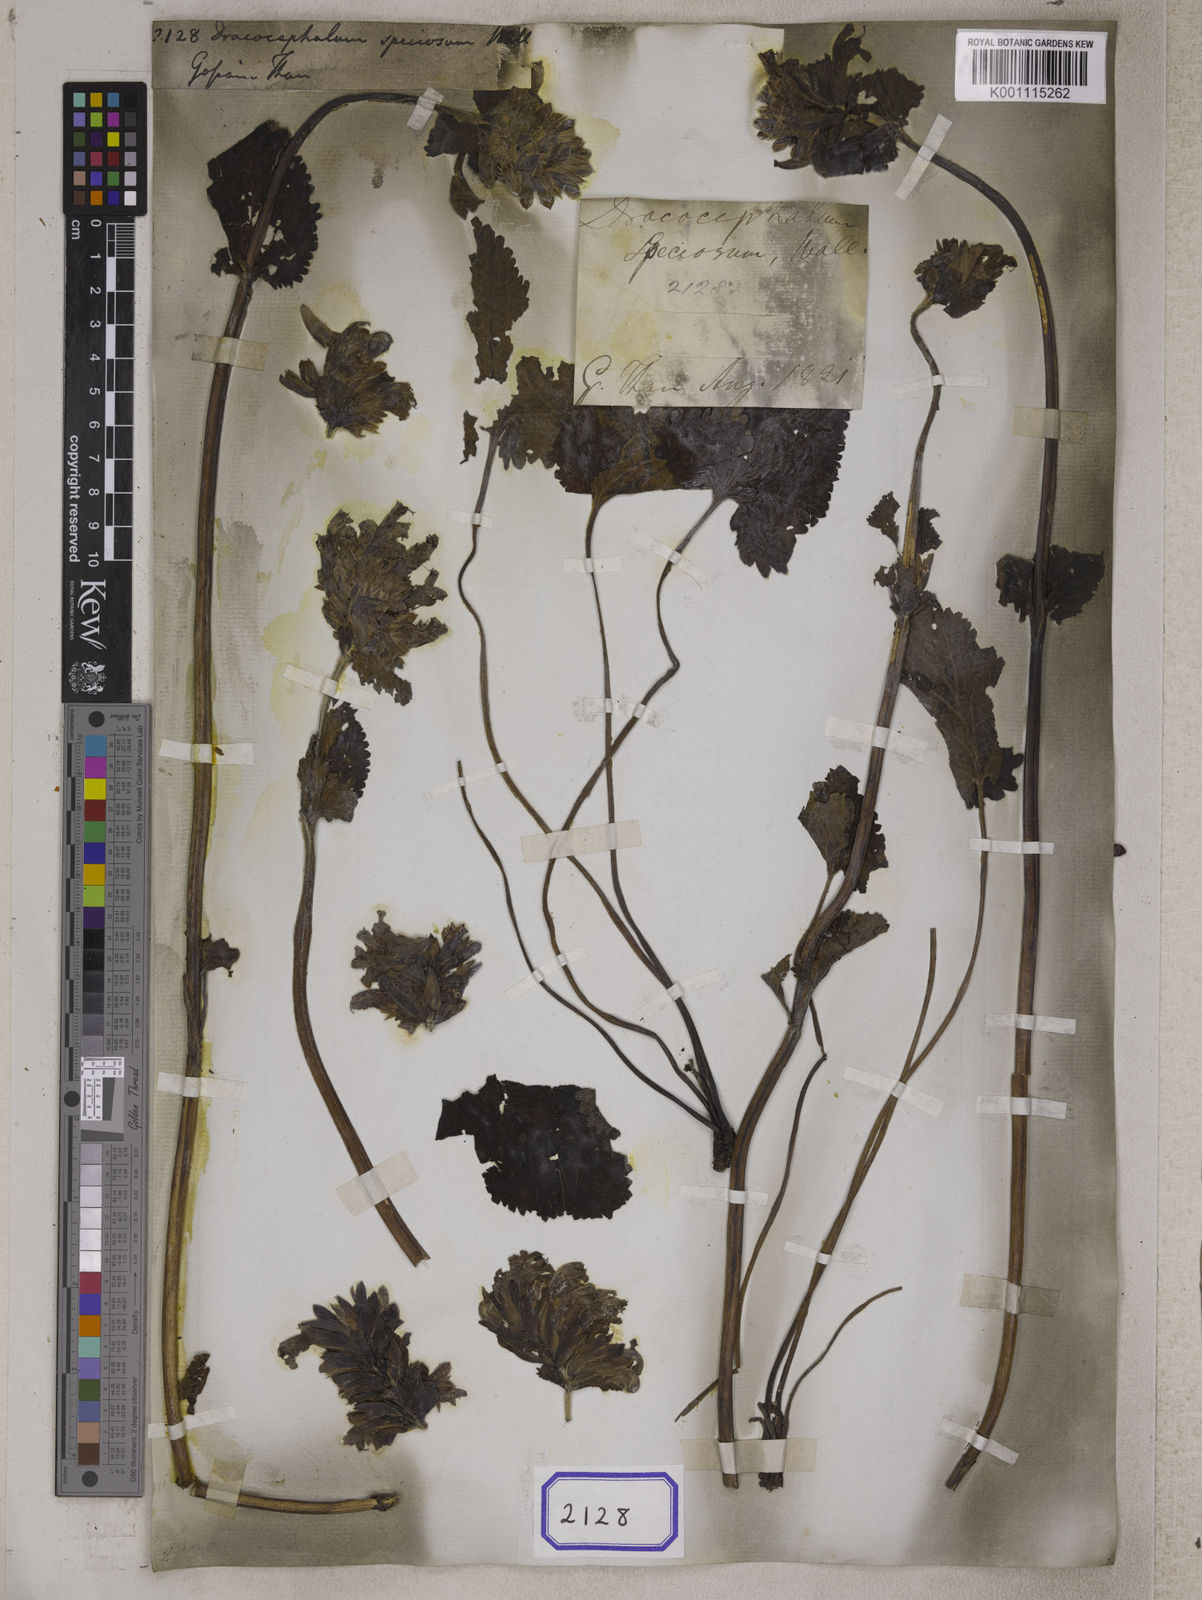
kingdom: Plantae
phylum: Tracheophyta
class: Magnoliopsida
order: Lamiales
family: Lamiaceae
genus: Dracocephalum
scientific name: Dracocephalum
